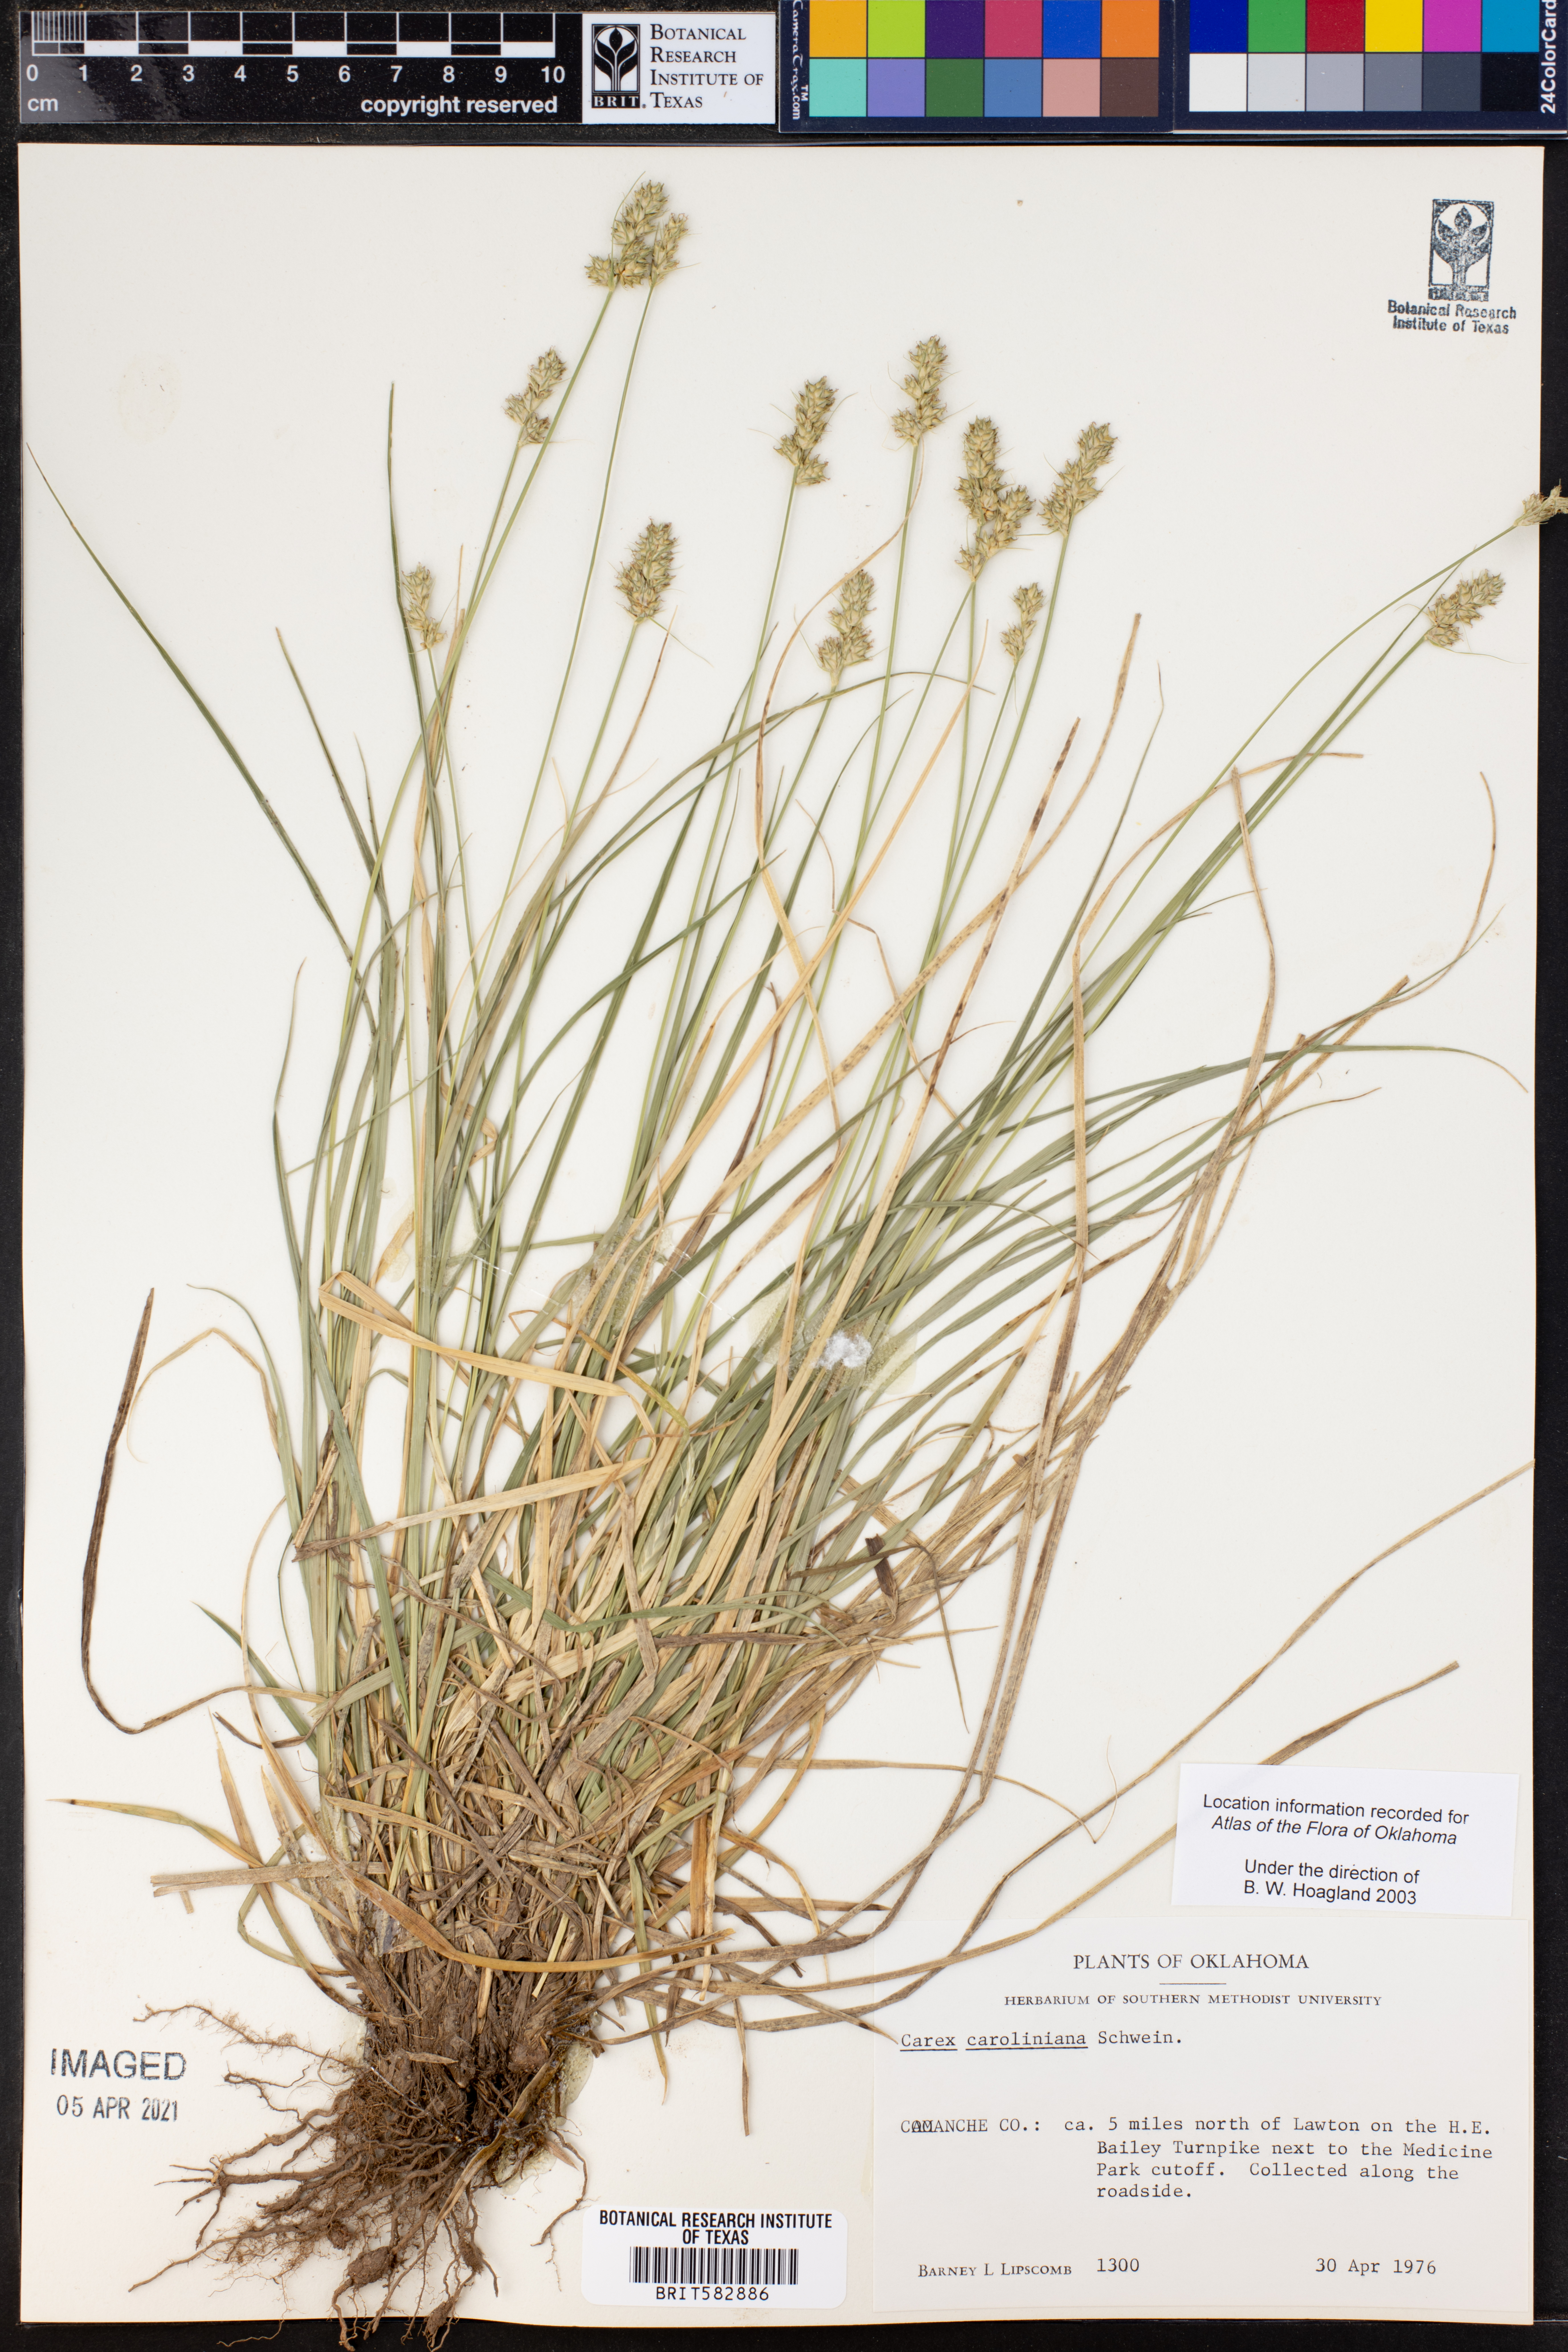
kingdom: Plantae
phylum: Tracheophyta
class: Liliopsida
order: Poales
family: Cyperaceae
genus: Carex
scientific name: Carex caroliniana
